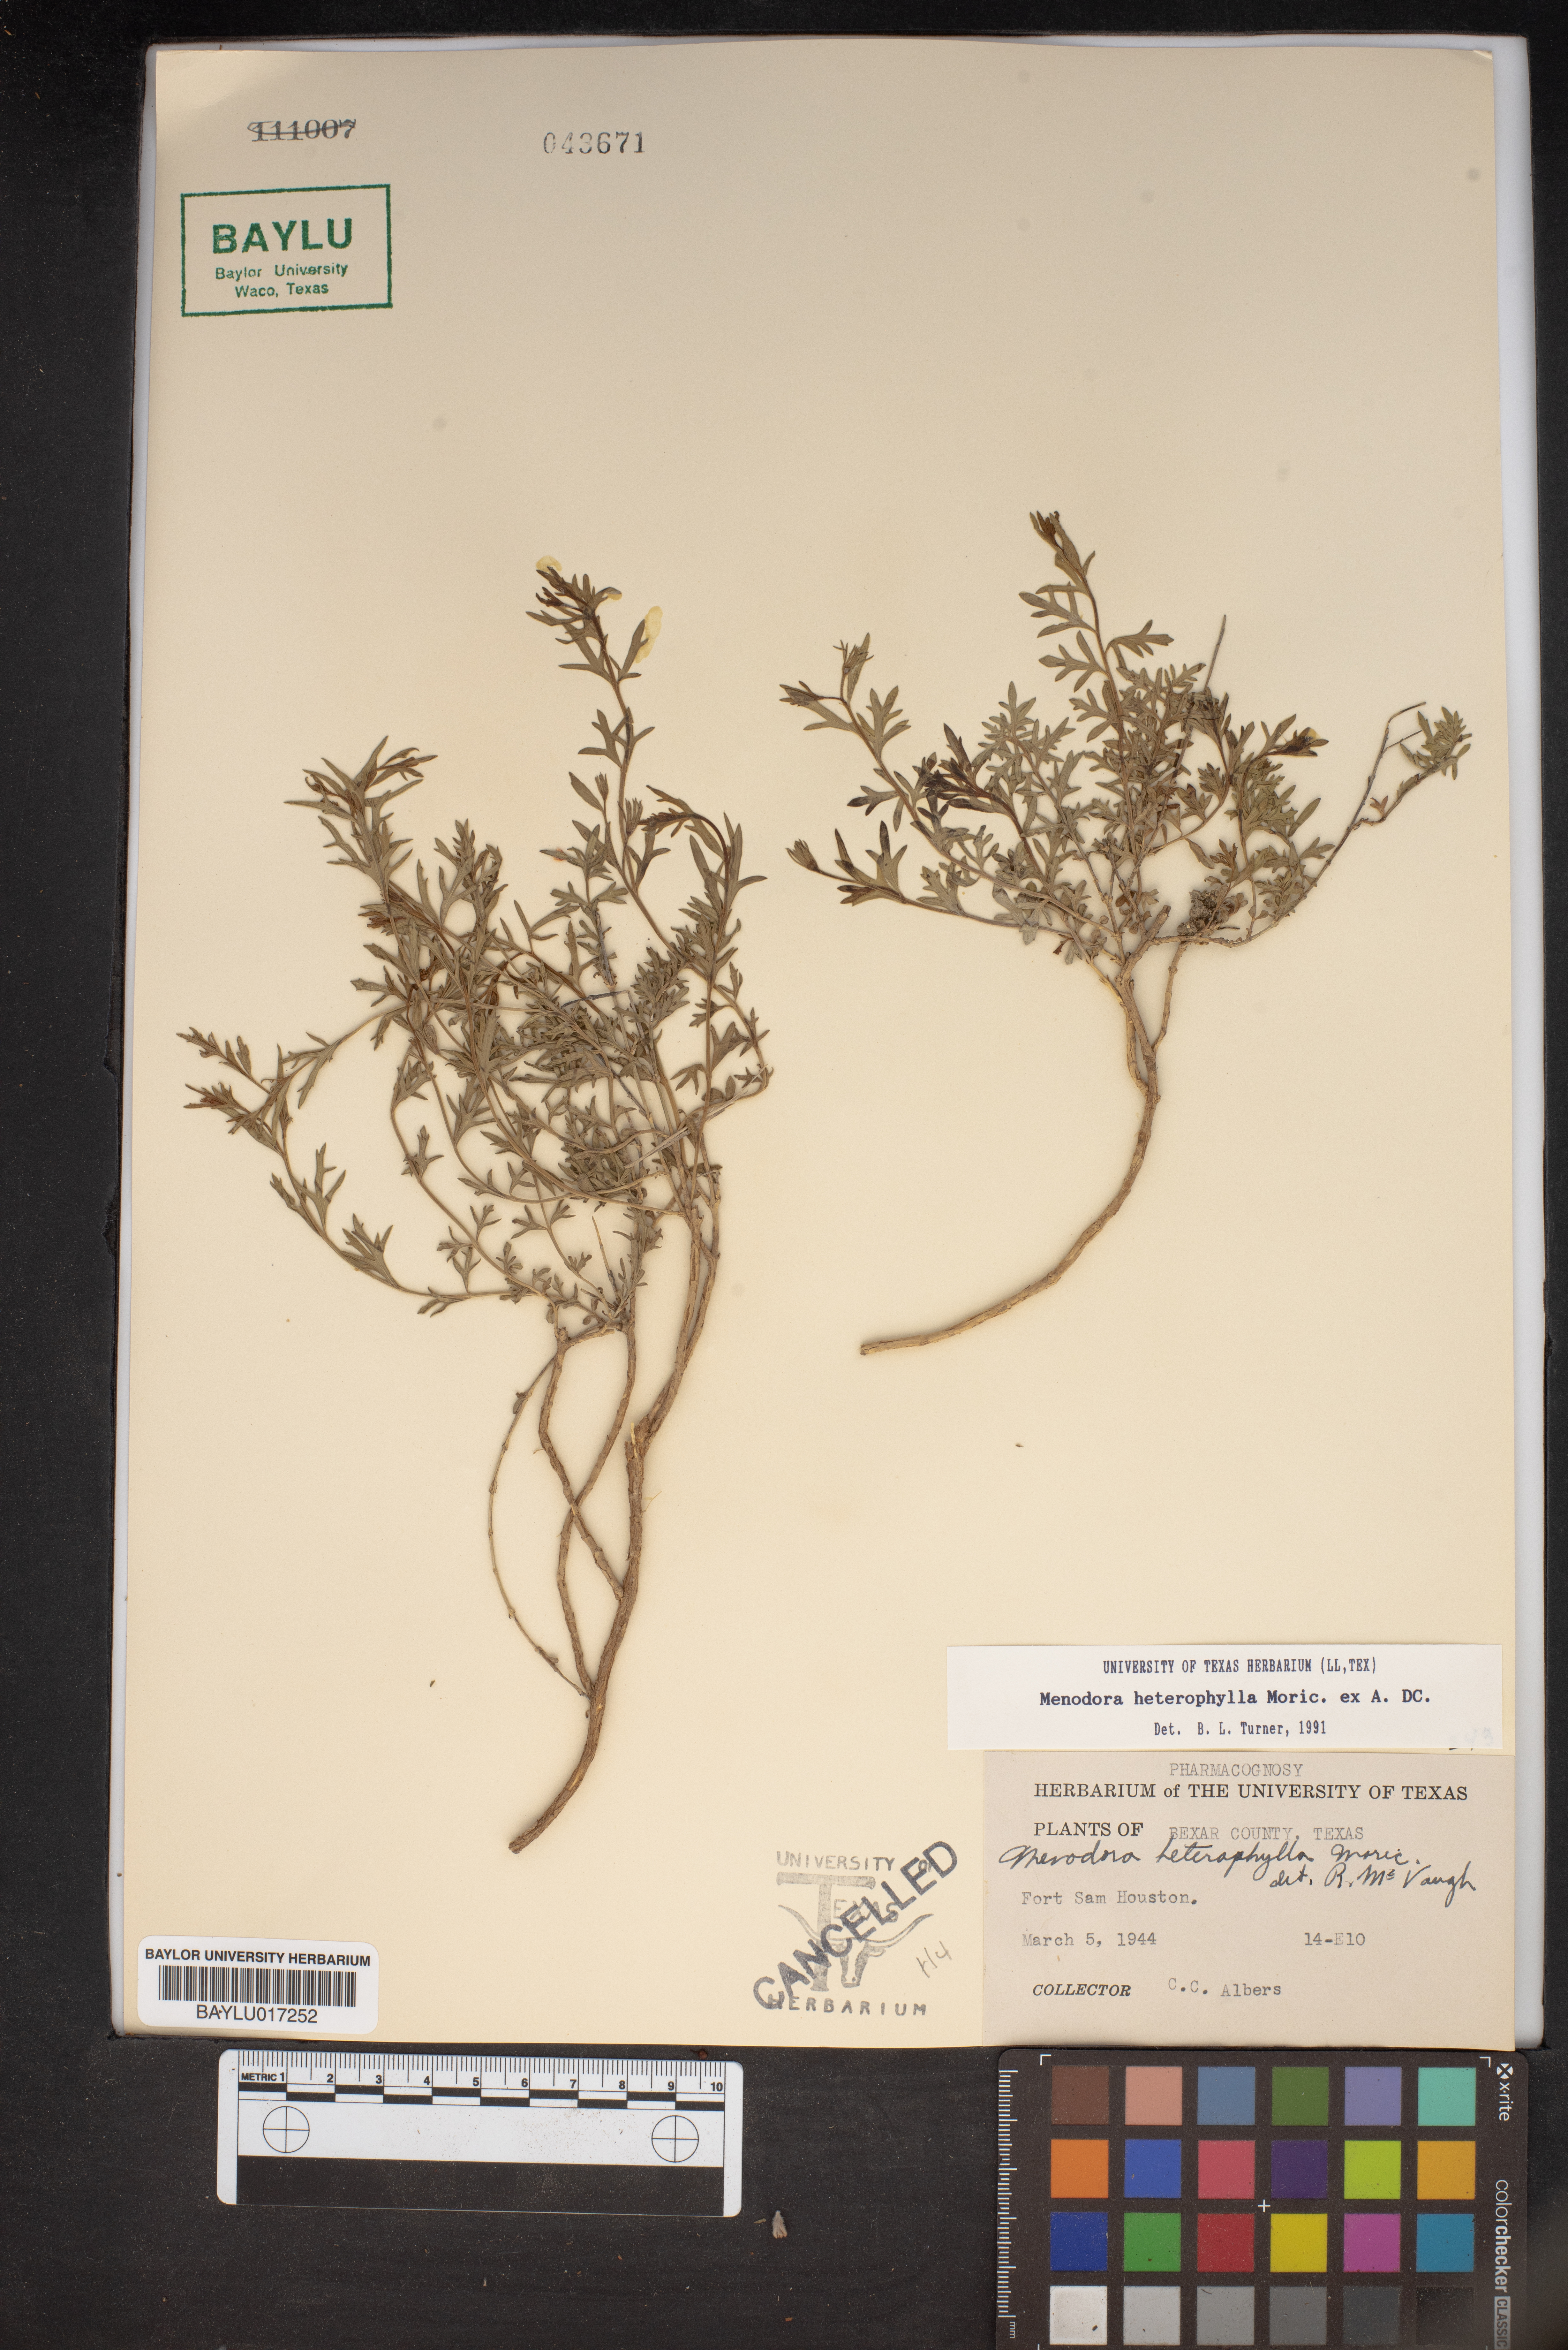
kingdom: Plantae
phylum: Tracheophyta
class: Magnoliopsida
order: Lamiales
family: Oleaceae
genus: Menodora
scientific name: Menodora heterophylla
